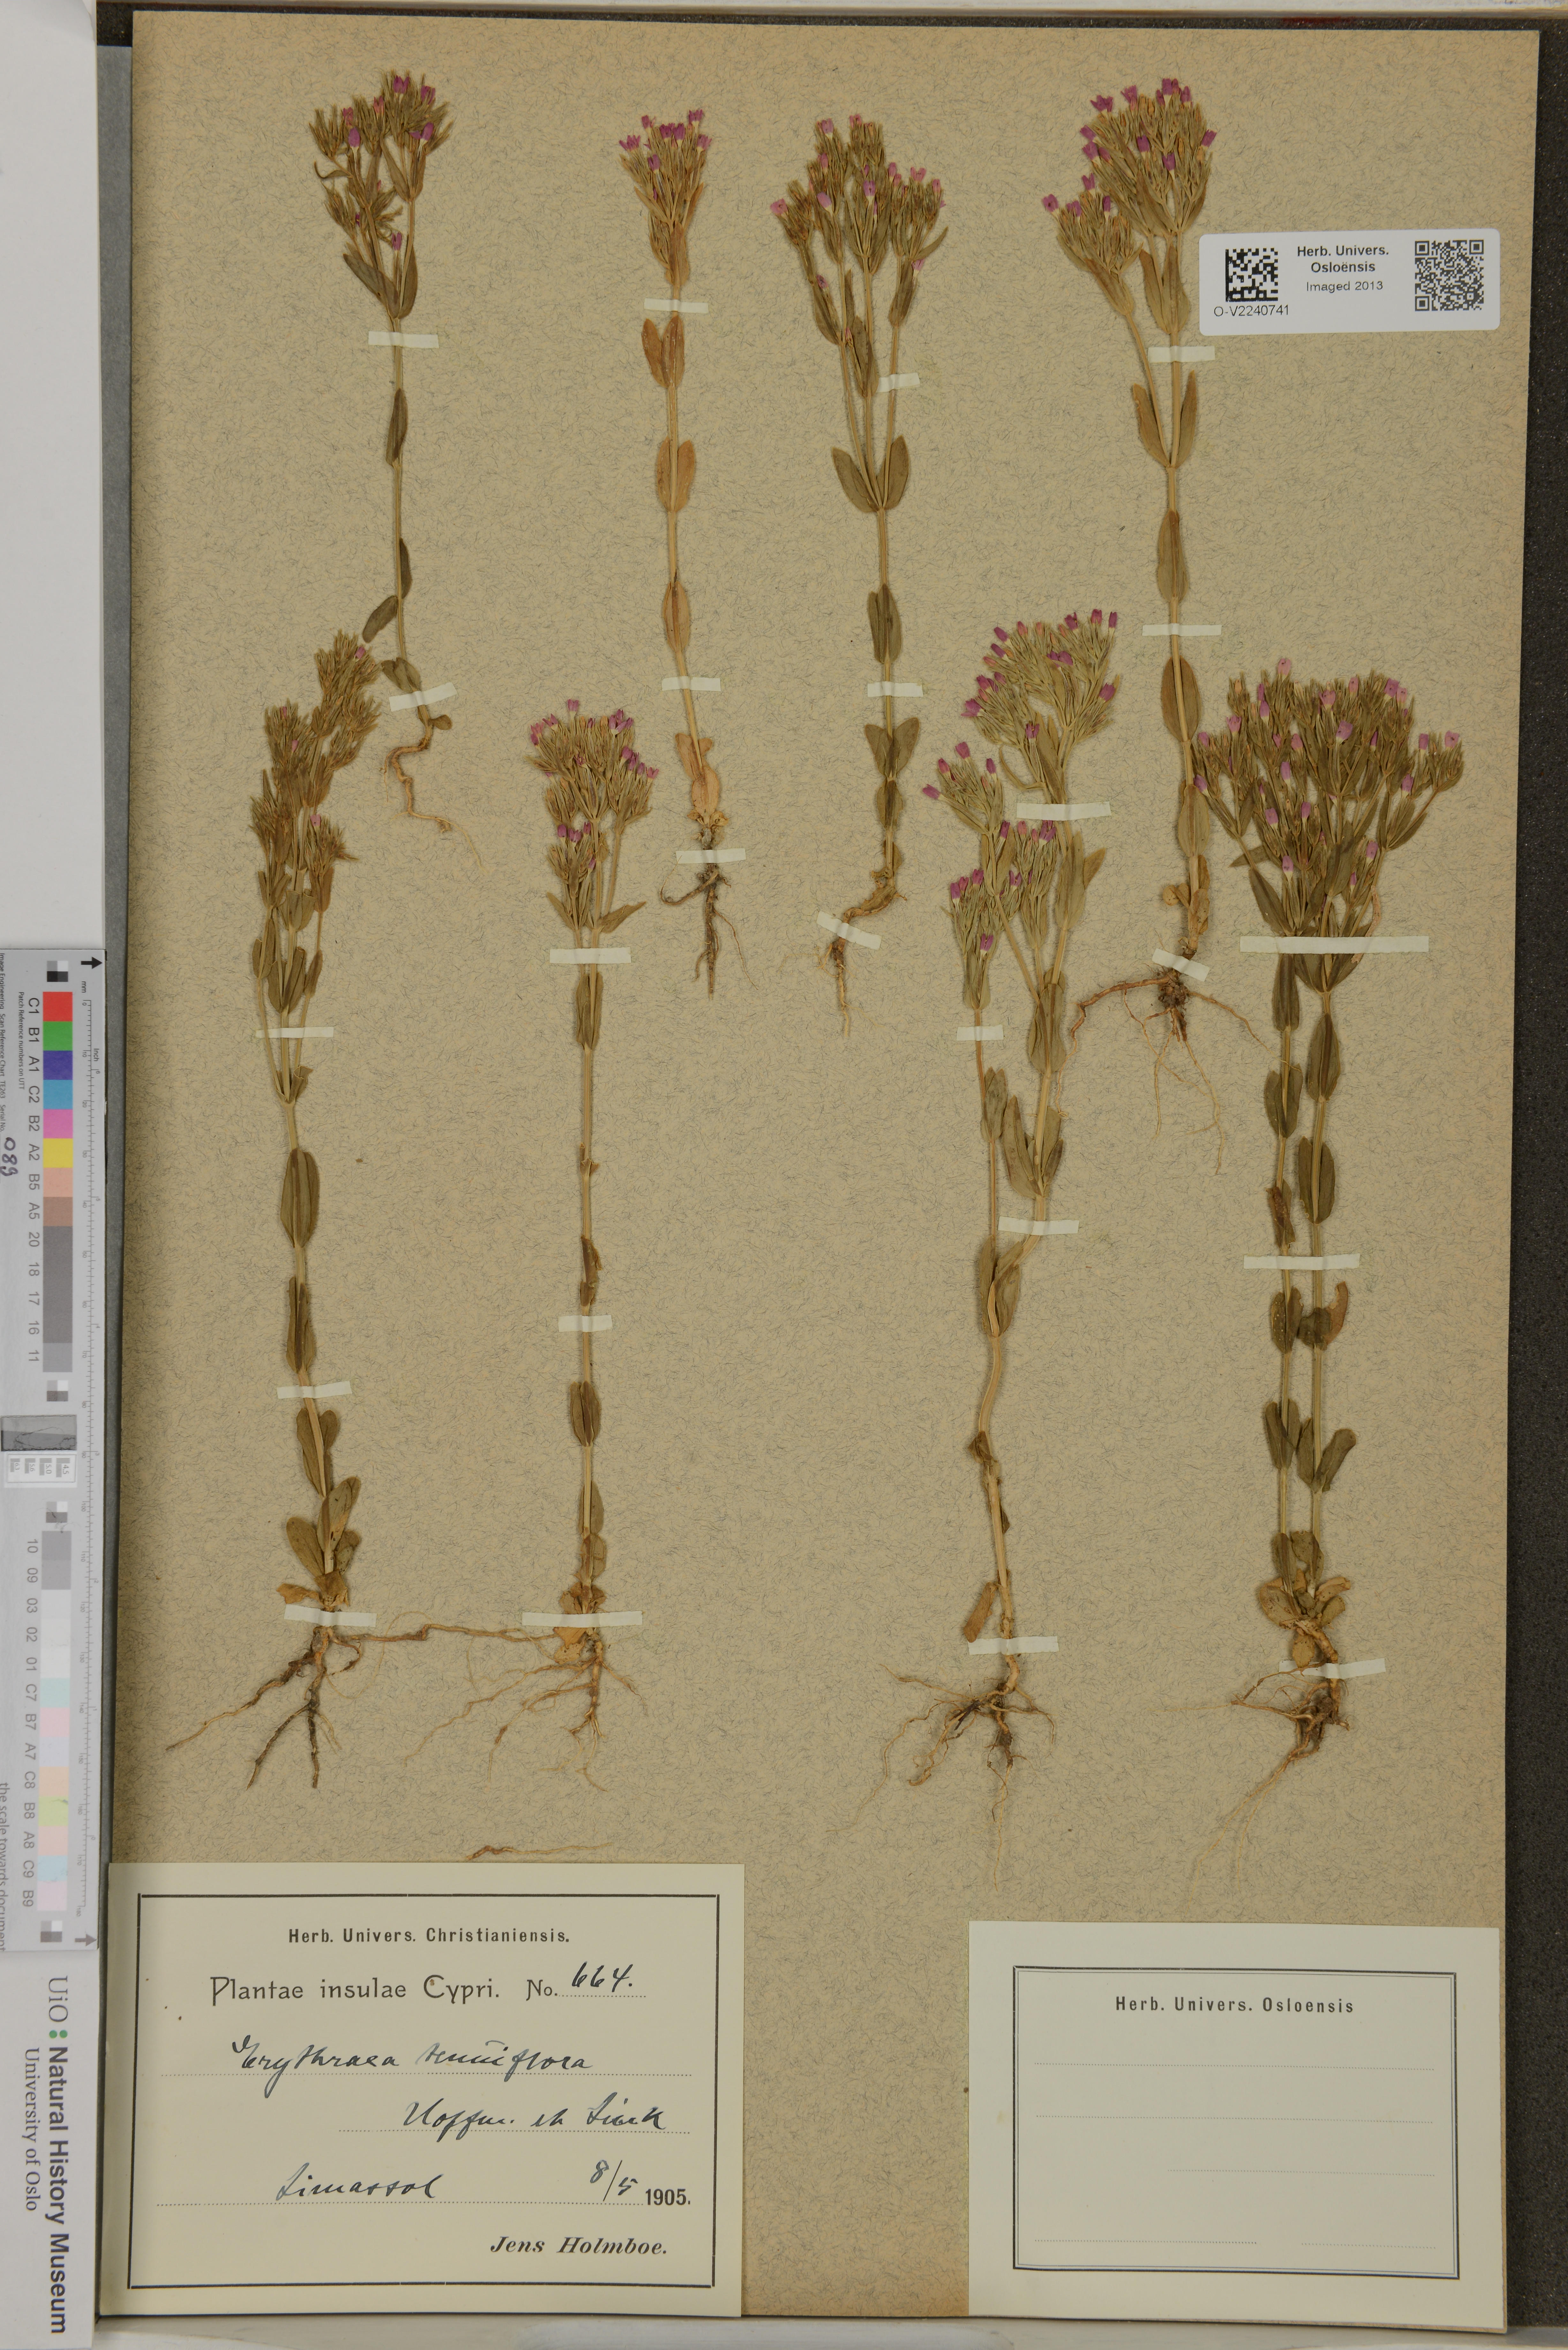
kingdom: Plantae
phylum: Tracheophyta
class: Magnoliopsida
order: Gentianales
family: Gentianaceae
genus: Centaurium
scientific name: Centaurium tenuiflorum
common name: Slender centaury
